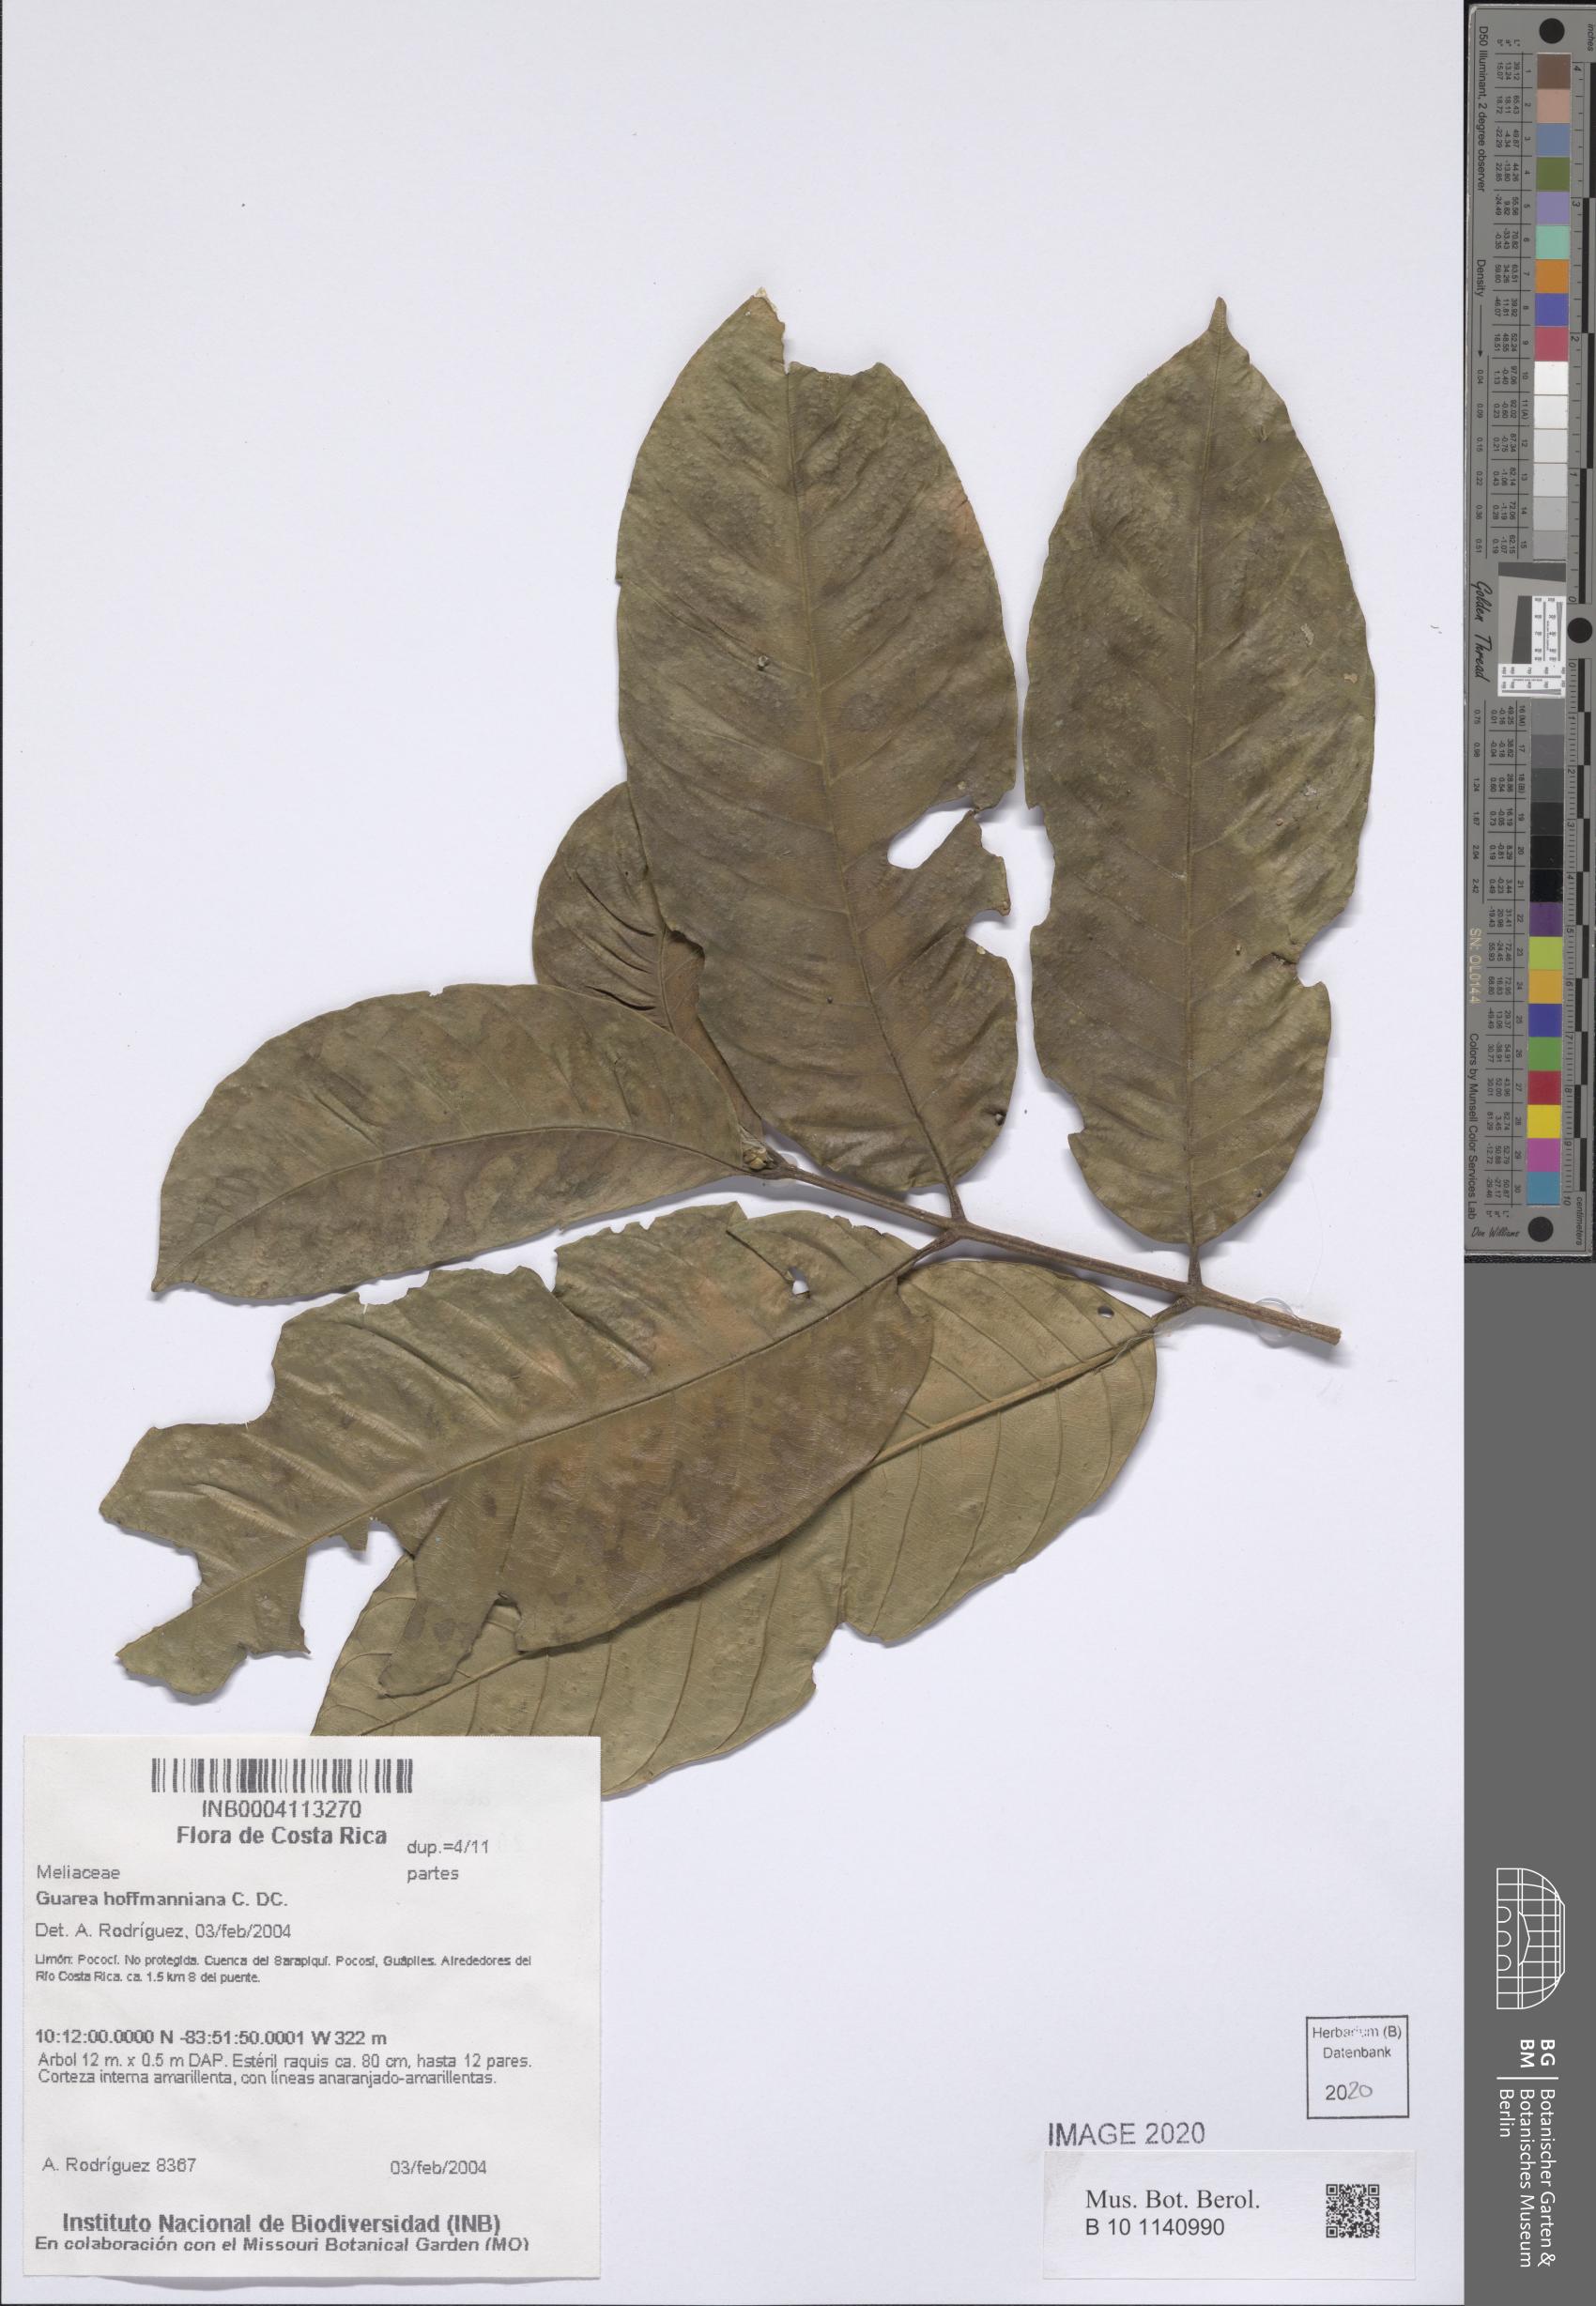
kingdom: Plantae
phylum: Tracheophyta
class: Magnoliopsida
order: Sapindales
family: Meliaceae
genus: Guarea
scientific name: Guarea hoffmanniana
